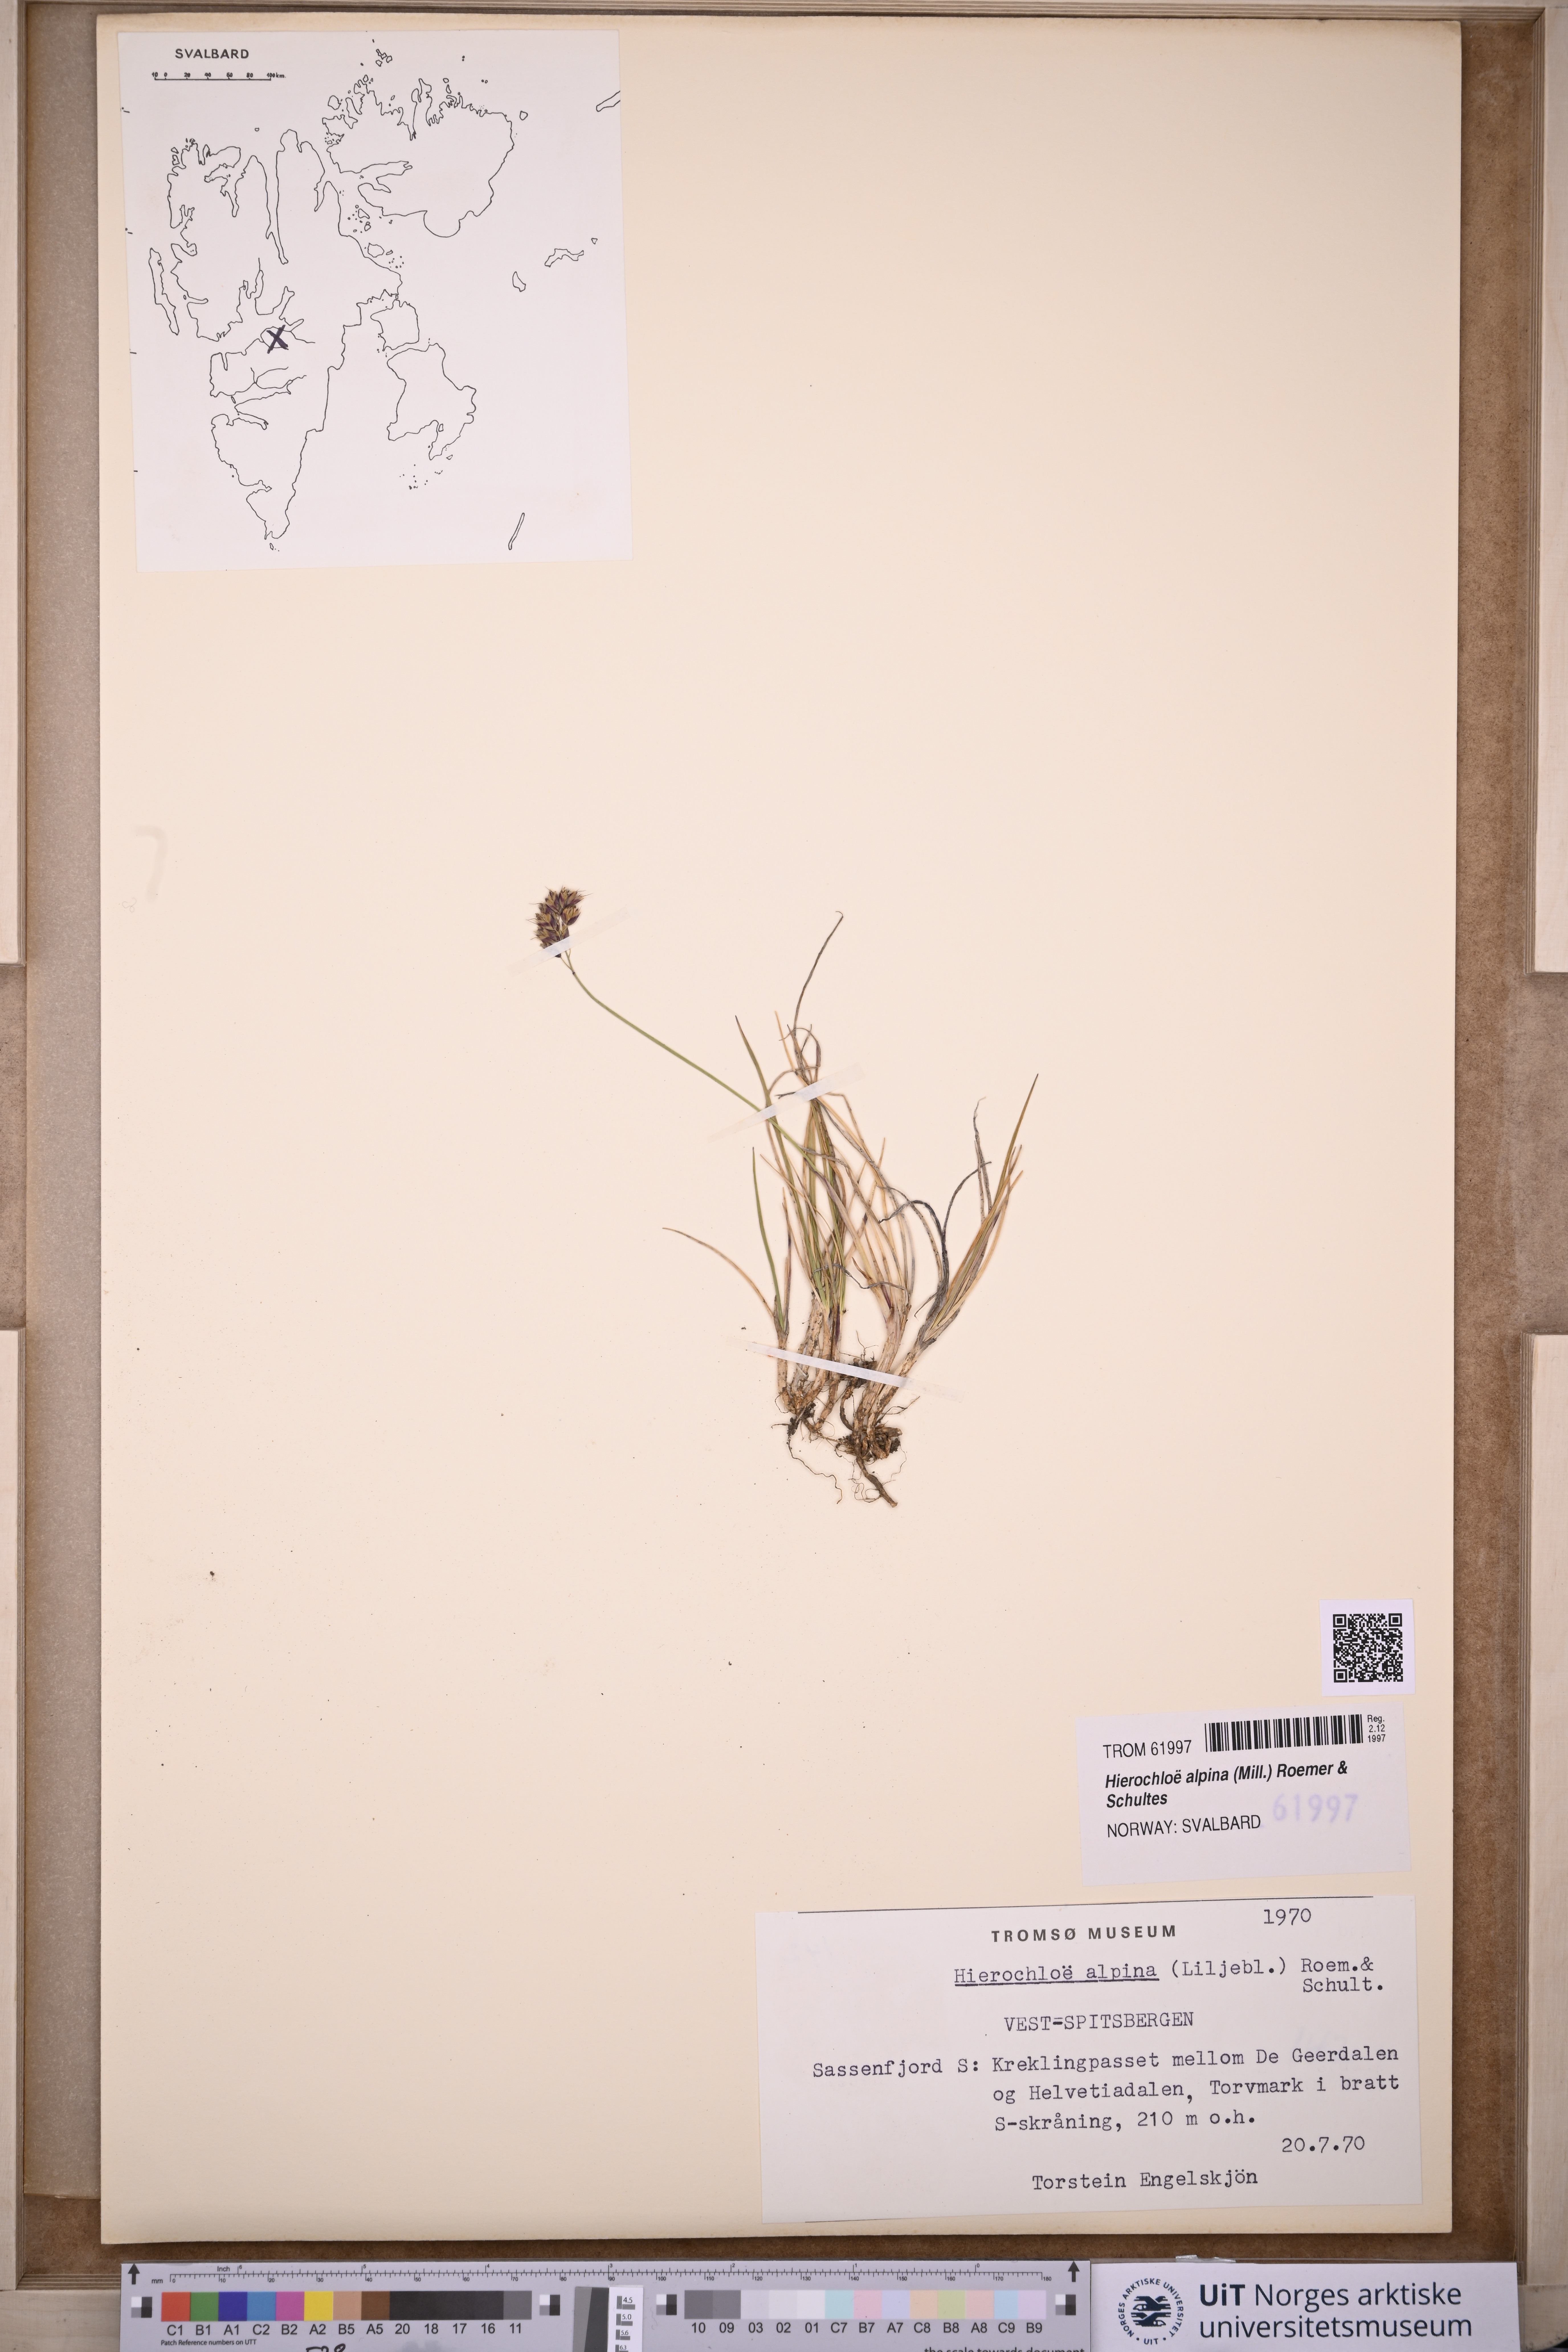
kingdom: Plantae
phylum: Tracheophyta
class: Liliopsida
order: Poales
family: Poaceae
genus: Anthoxanthum
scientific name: Anthoxanthum monticola
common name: Alpine sweetgrass
